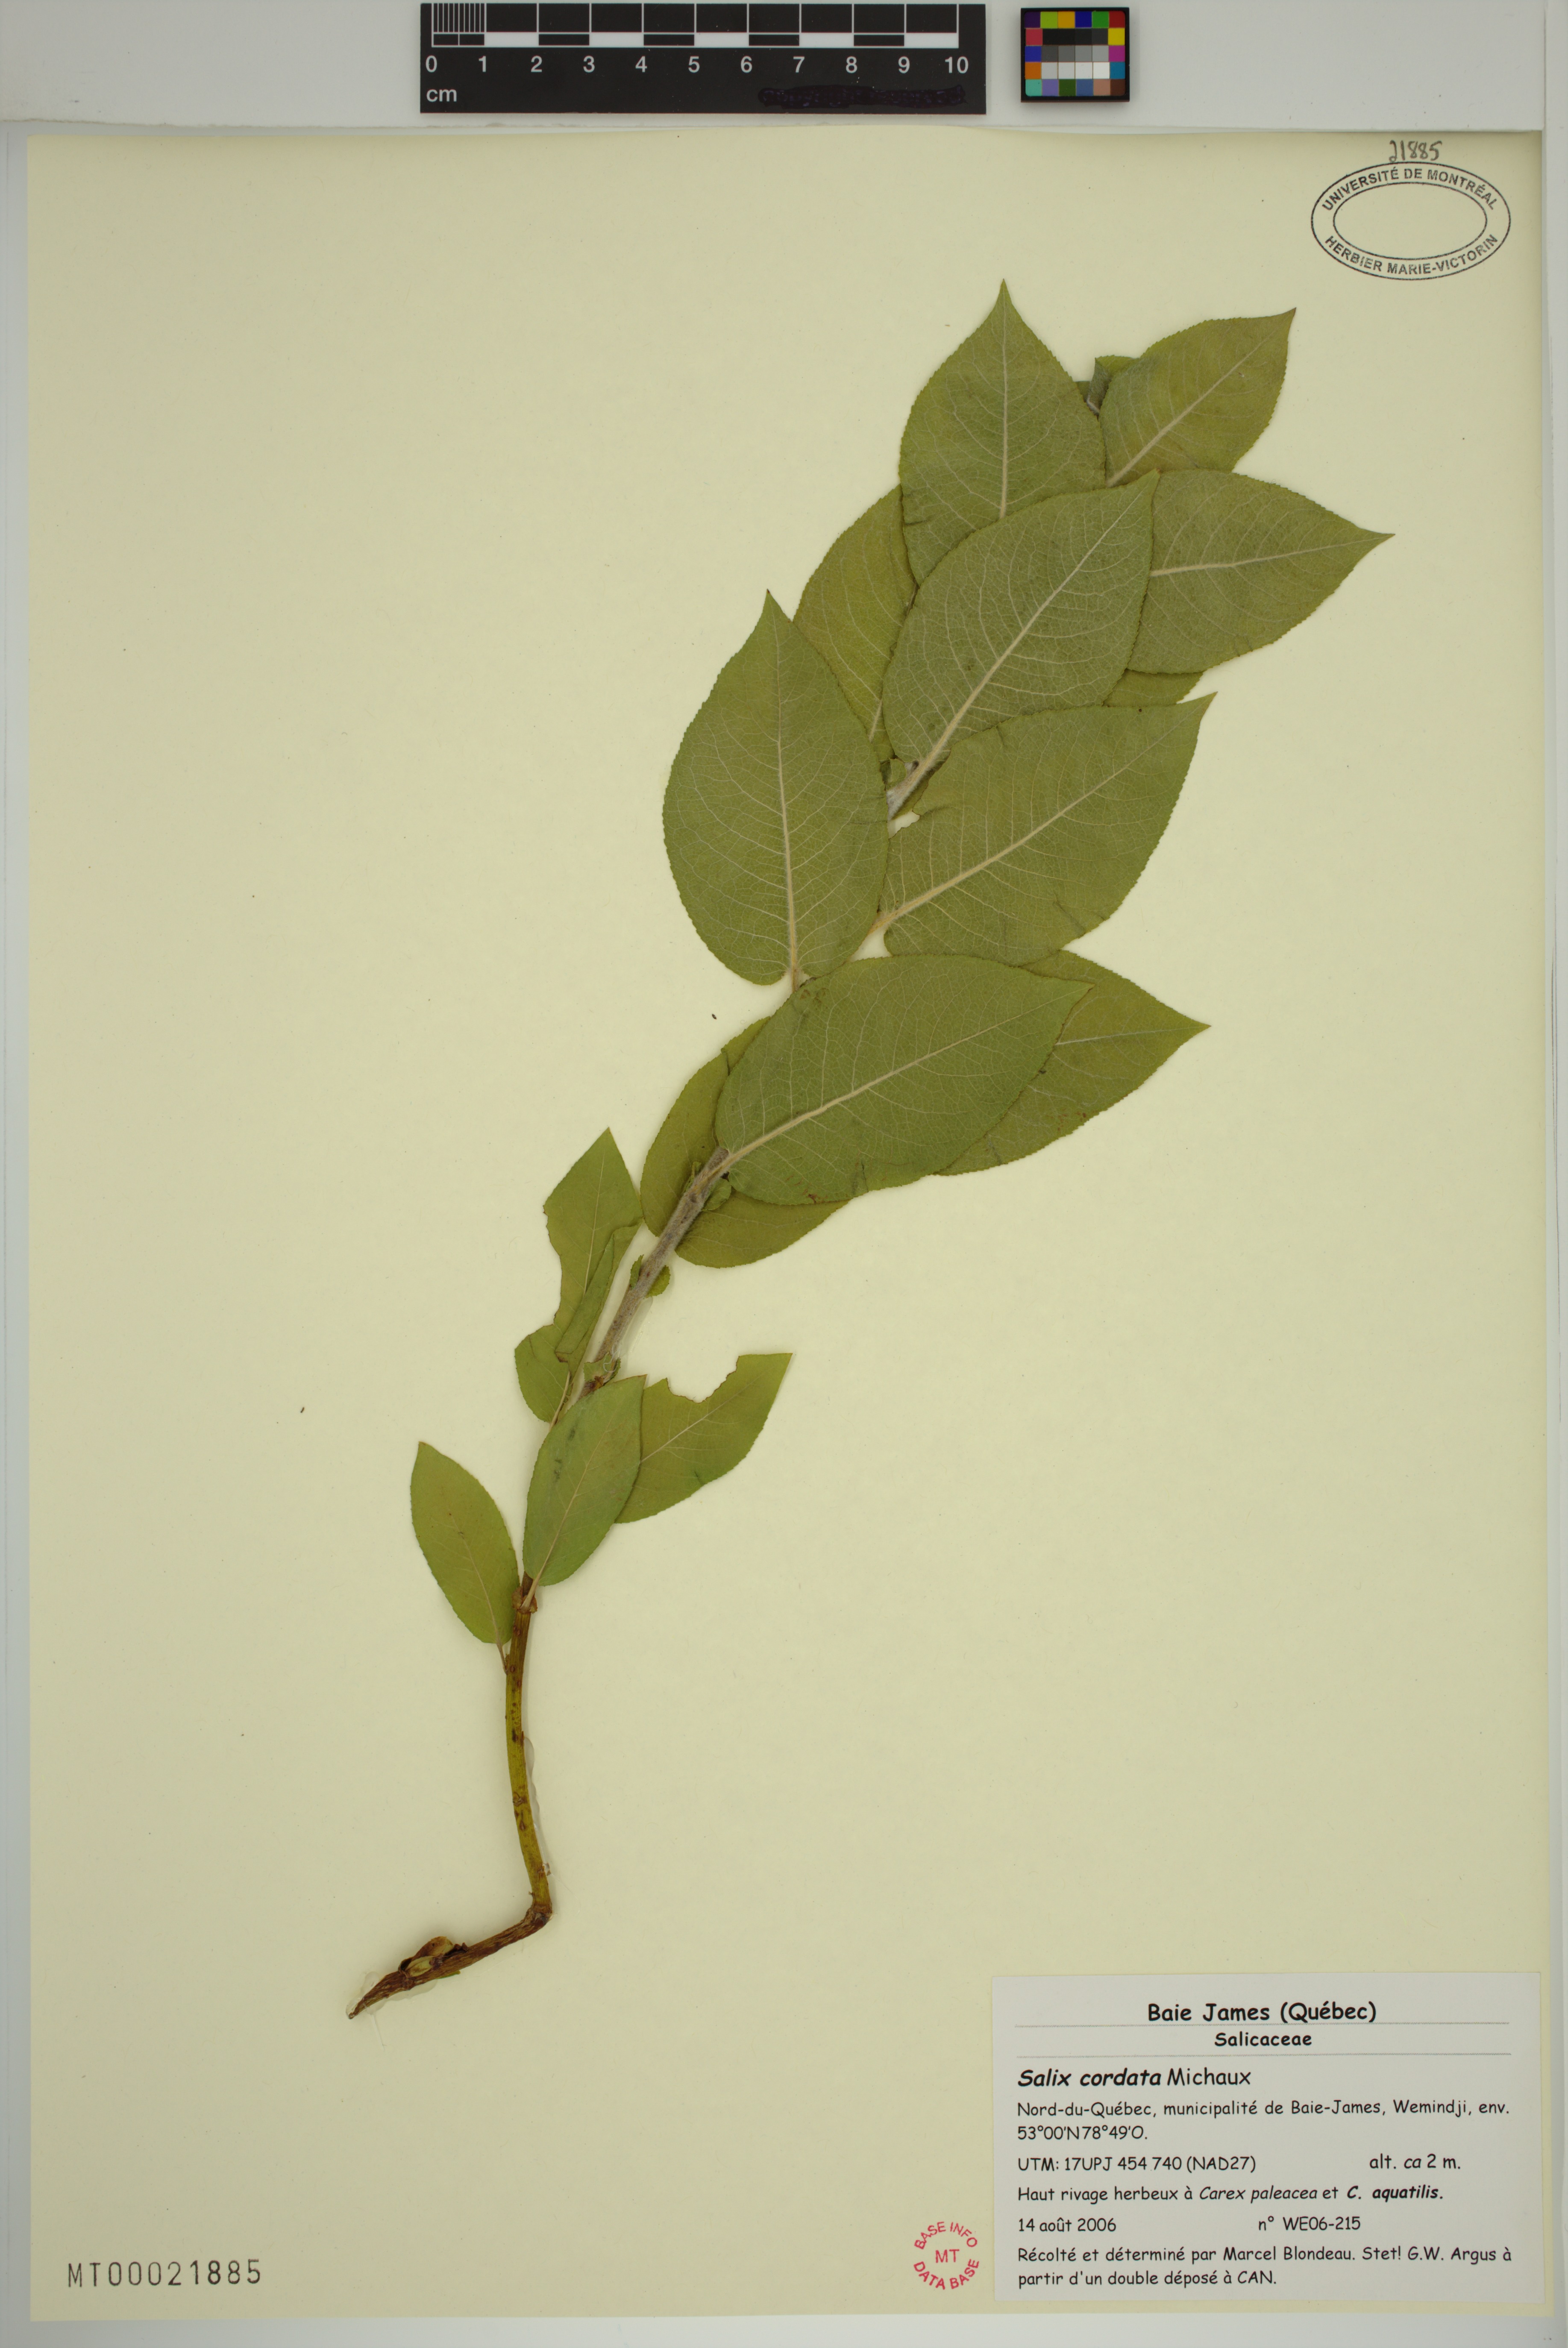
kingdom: Plantae
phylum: Tracheophyta
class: Magnoliopsida
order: Malpighiales
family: Salicaceae
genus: Salix
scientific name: Salix cordata
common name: Heart-leaf willow
